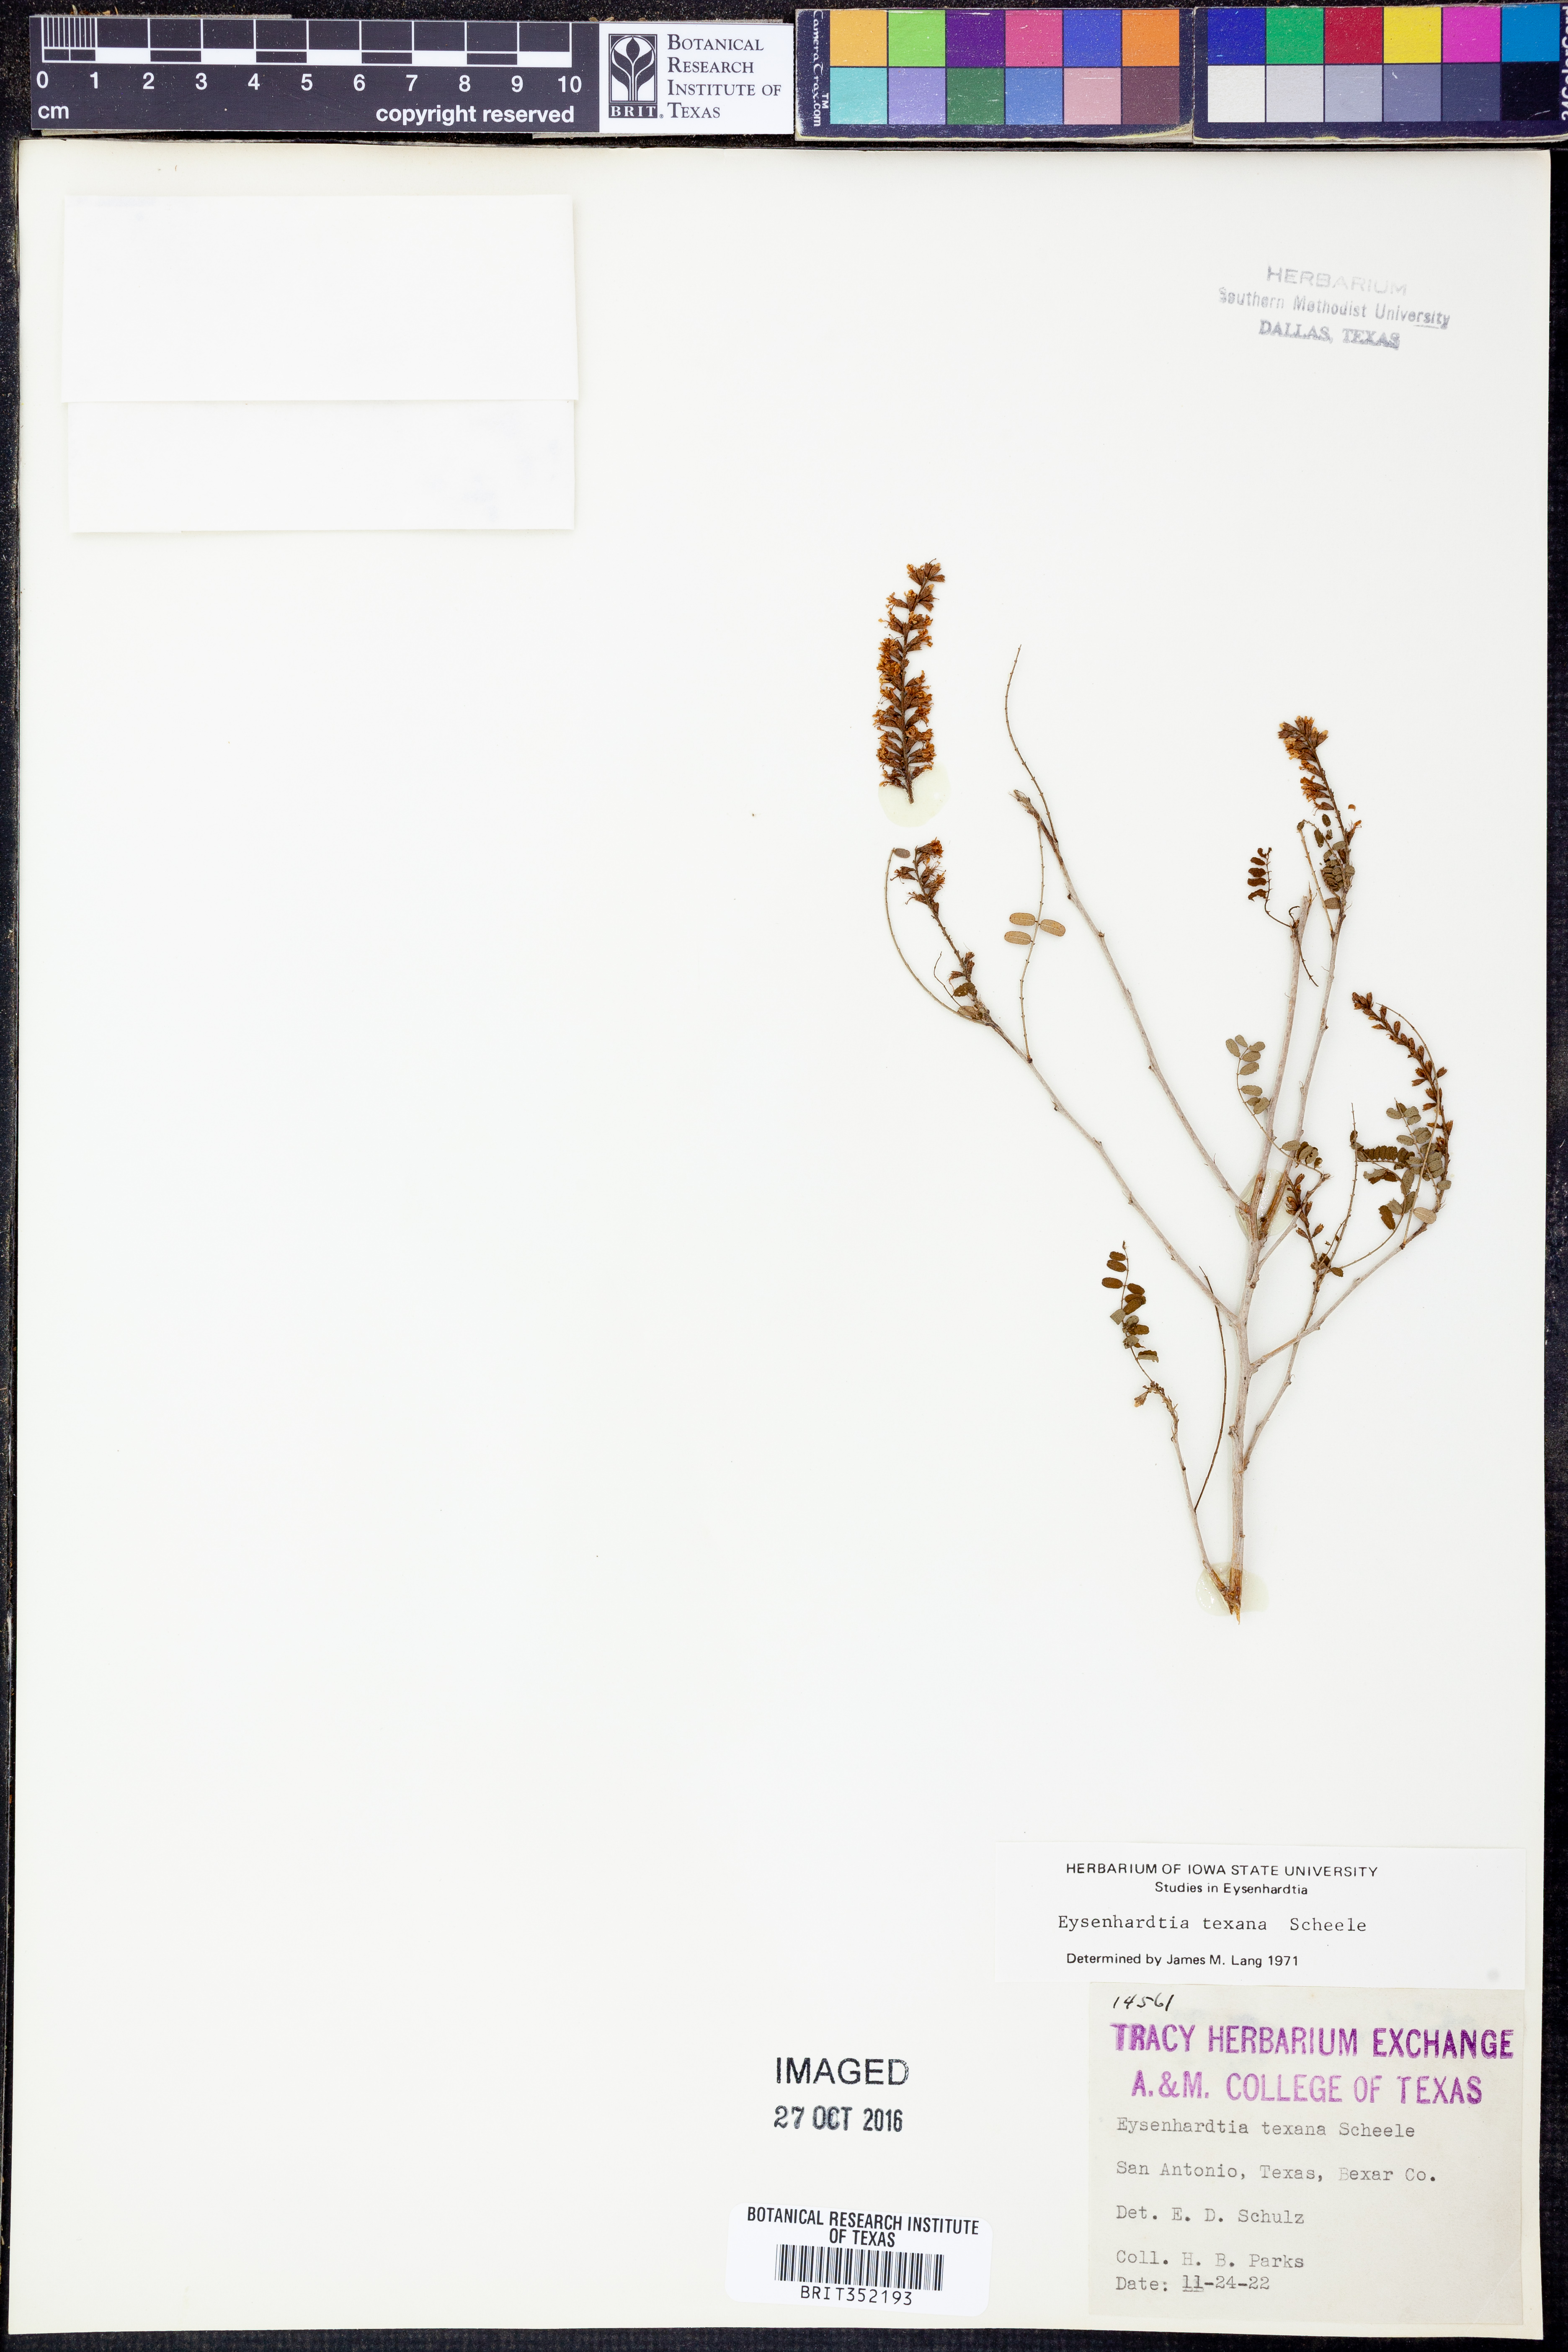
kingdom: Plantae
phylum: Tracheophyta
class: Magnoliopsida
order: Fabales
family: Fabaceae
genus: Eysenhardtia
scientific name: Eysenhardtia texana
